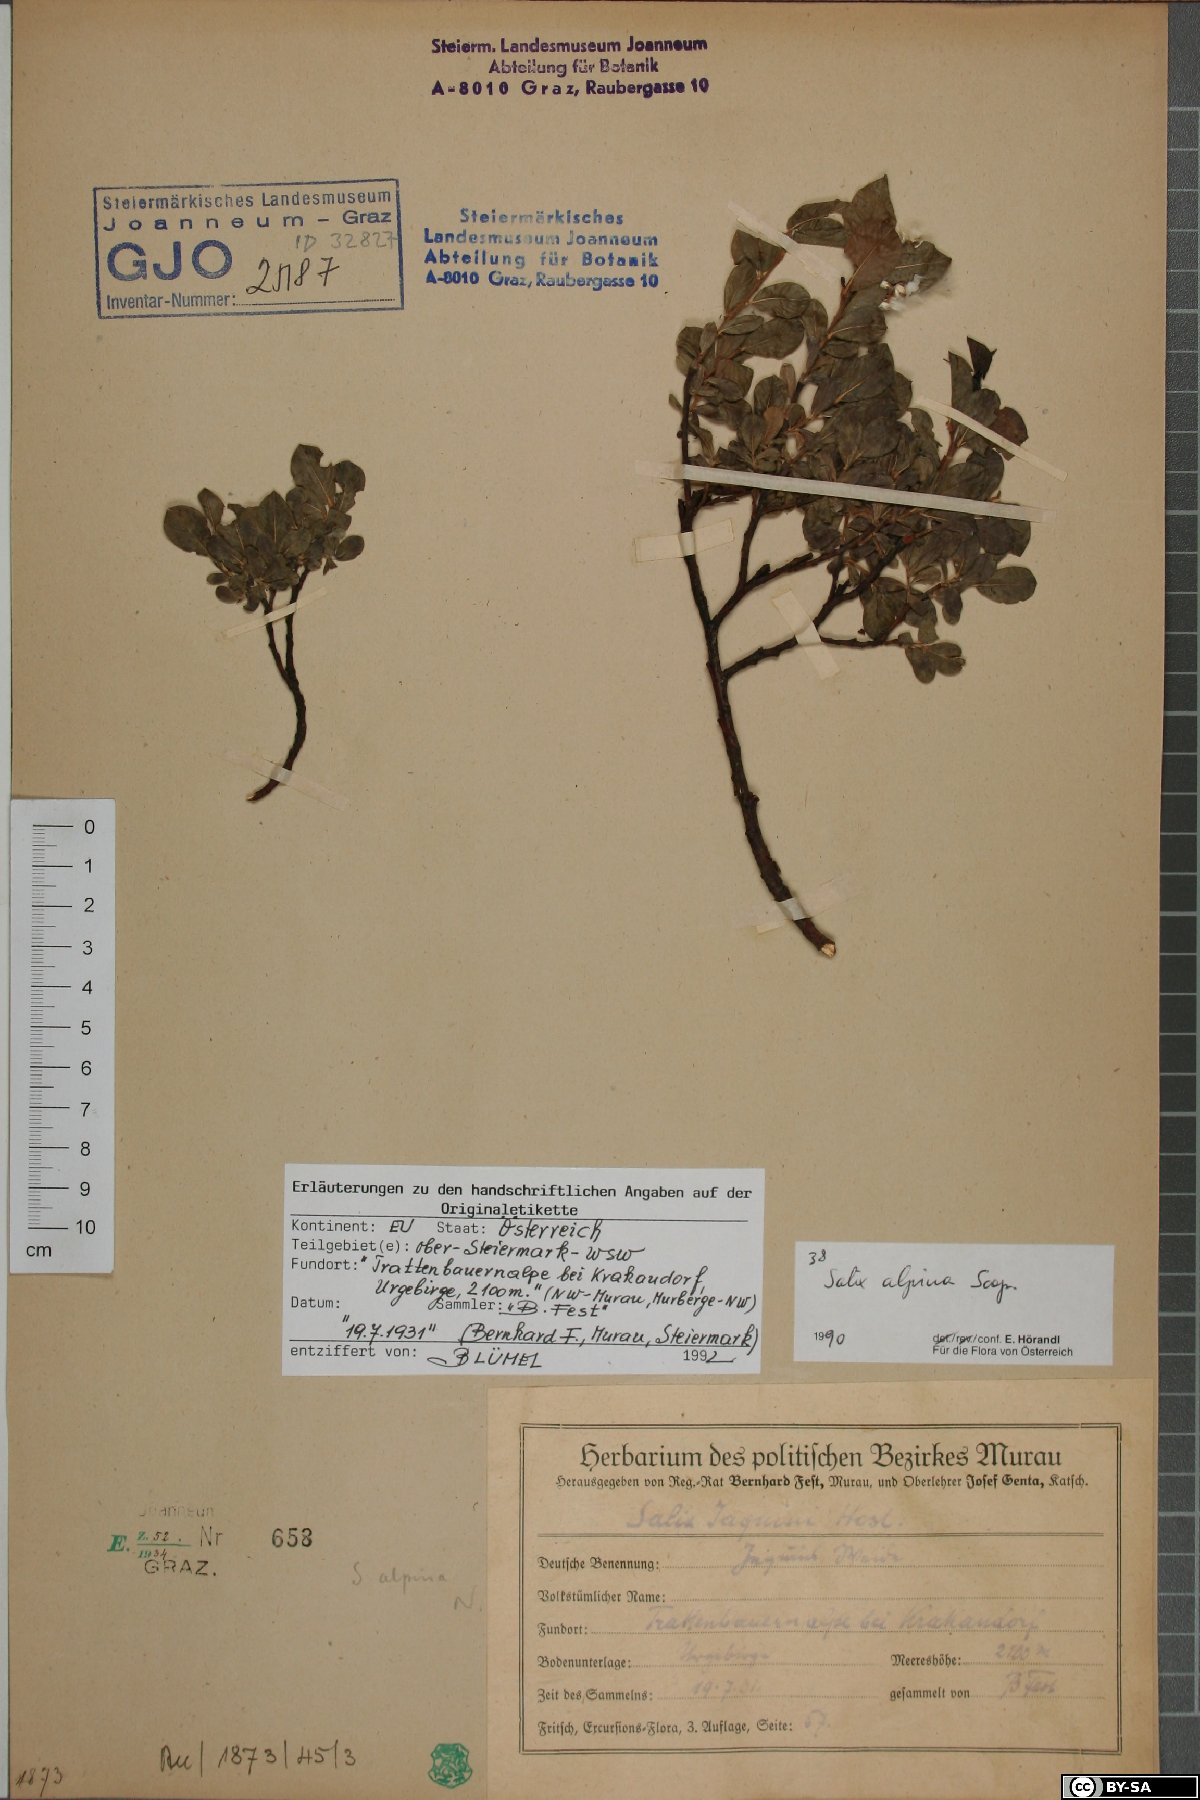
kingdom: Plantae
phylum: Tracheophyta
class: Magnoliopsida
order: Malpighiales
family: Salicaceae
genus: Salix
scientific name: Salix alpina
